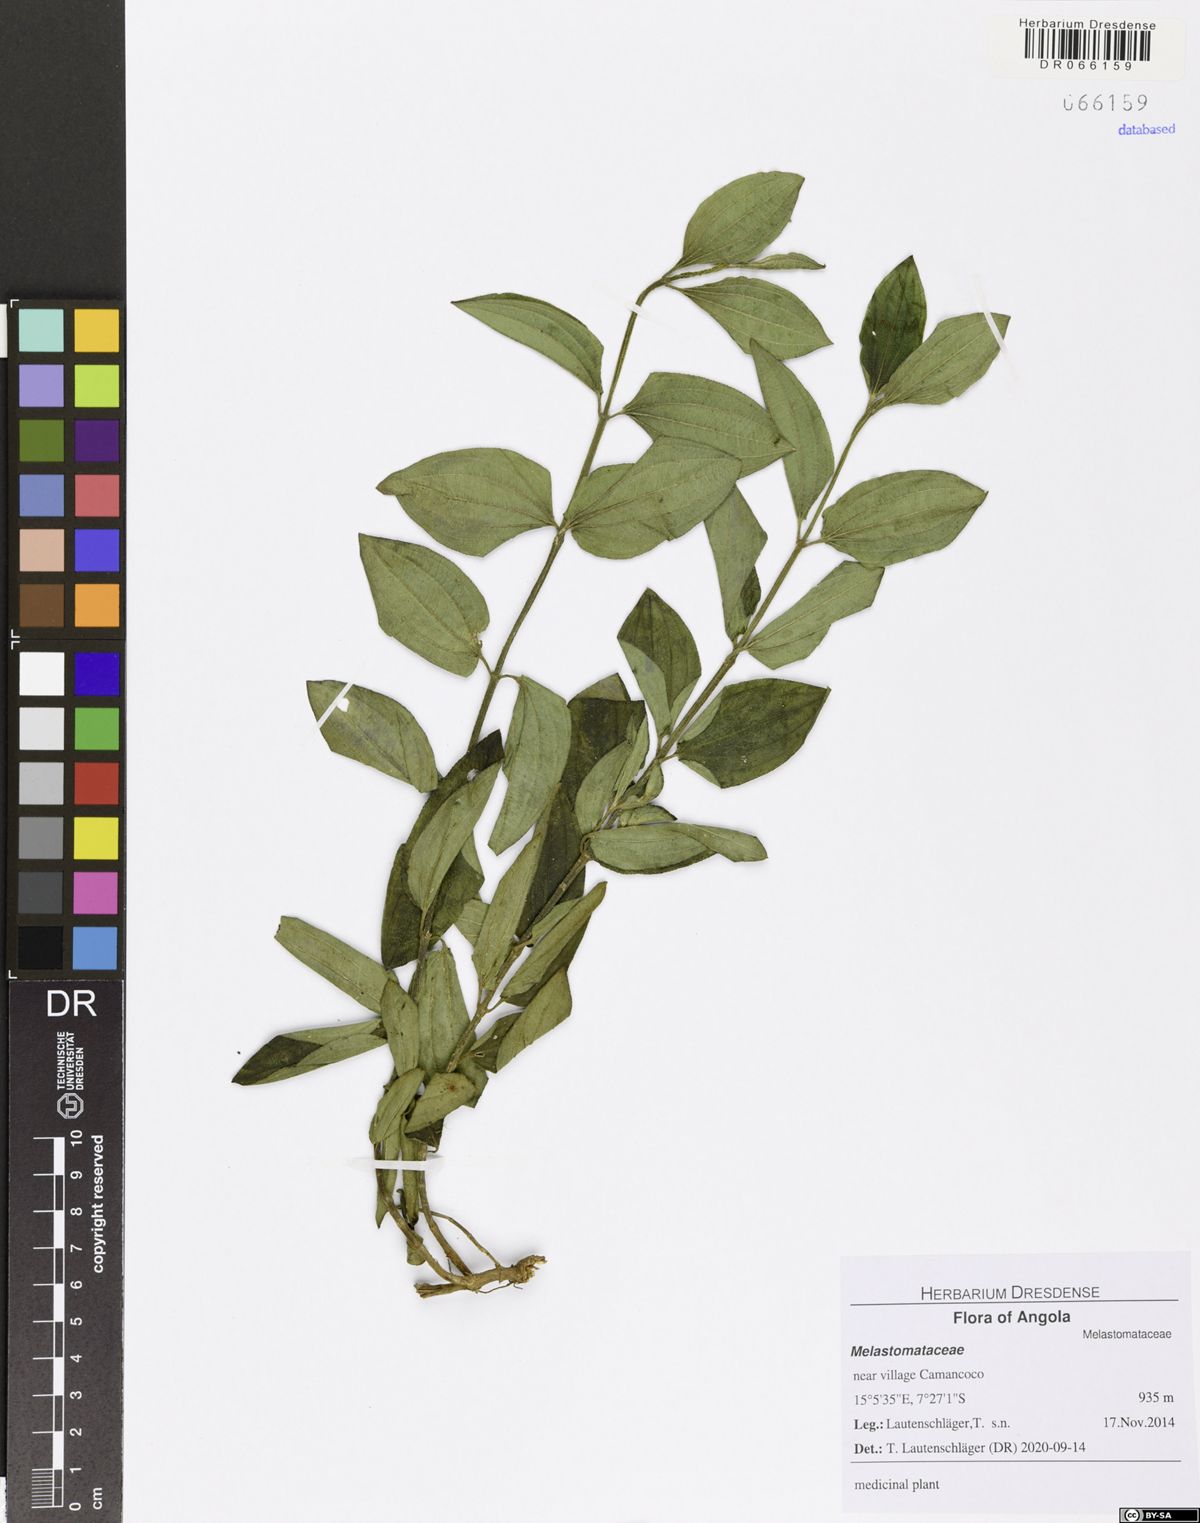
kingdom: Plantae
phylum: Tracheophyta
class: Magnoliopsida
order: Myrtales
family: Melastomataceae
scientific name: Melastomataceae
